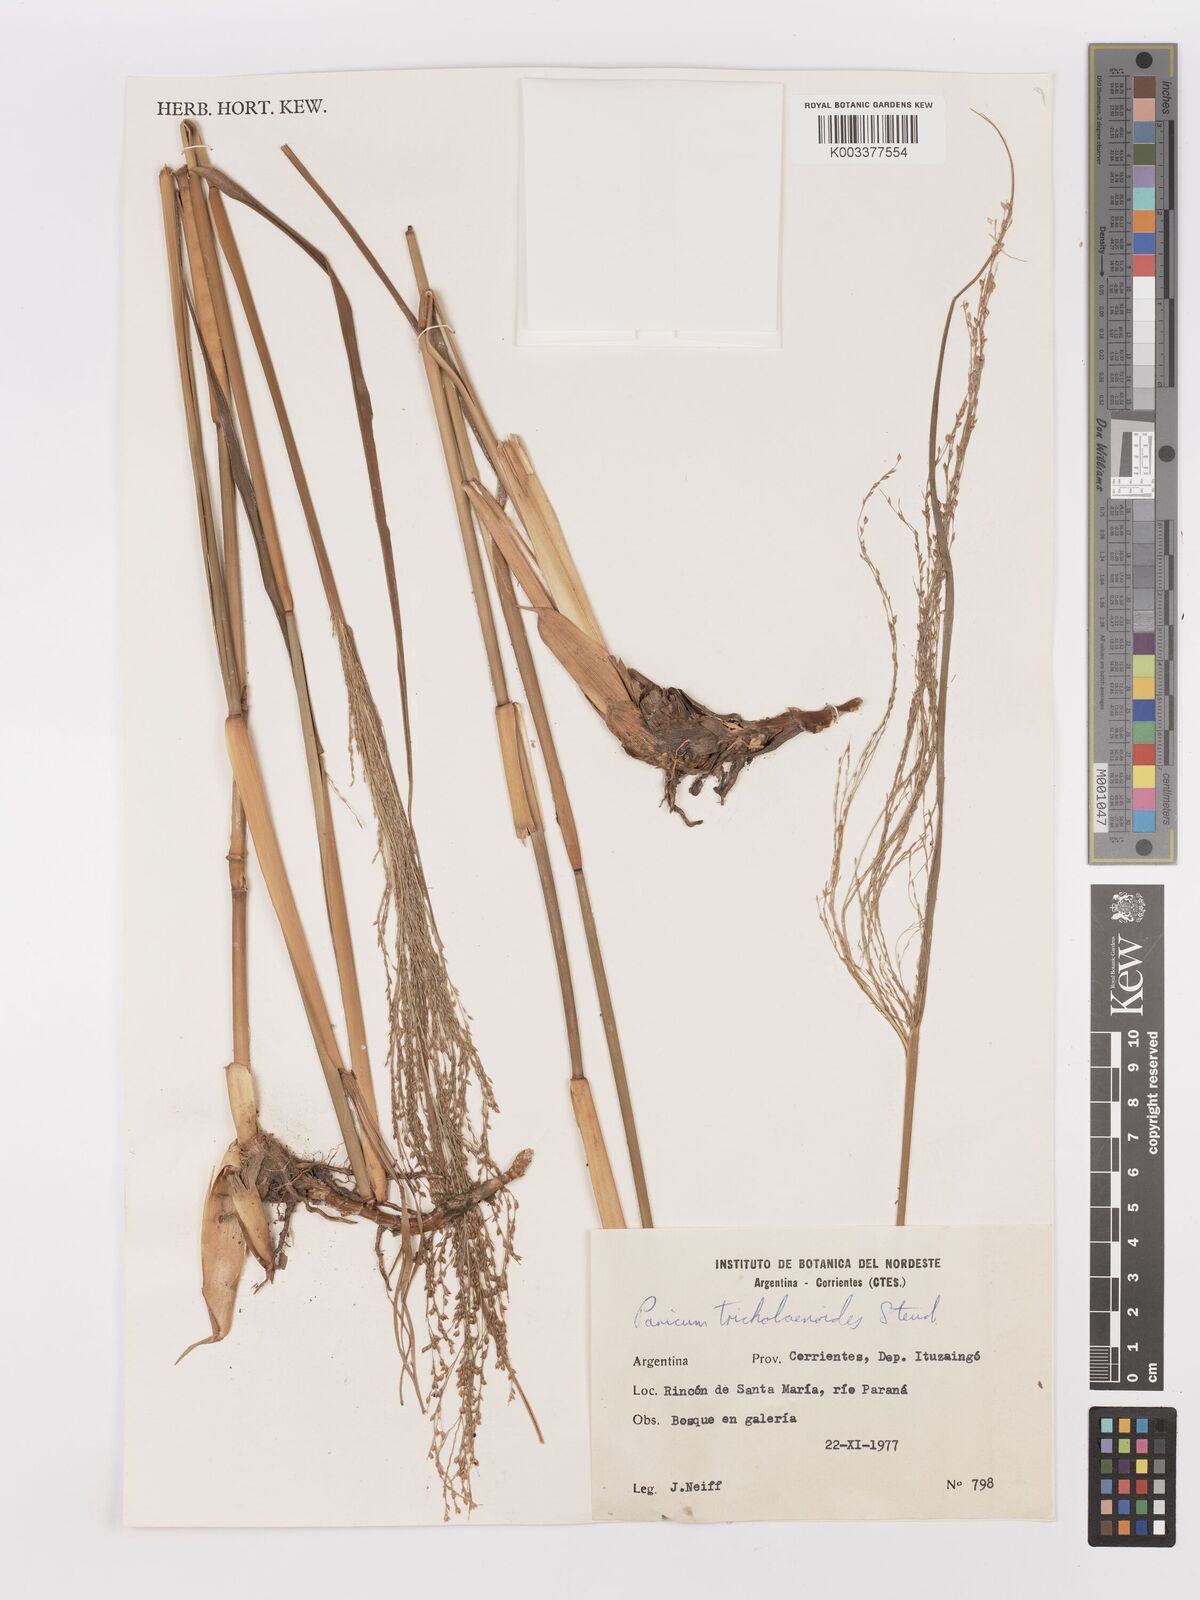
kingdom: Plantae
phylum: Tracheophyta
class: Liliopsida
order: Poales
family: Poaceae
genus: Panicum
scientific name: Panicum tricholaenoides
